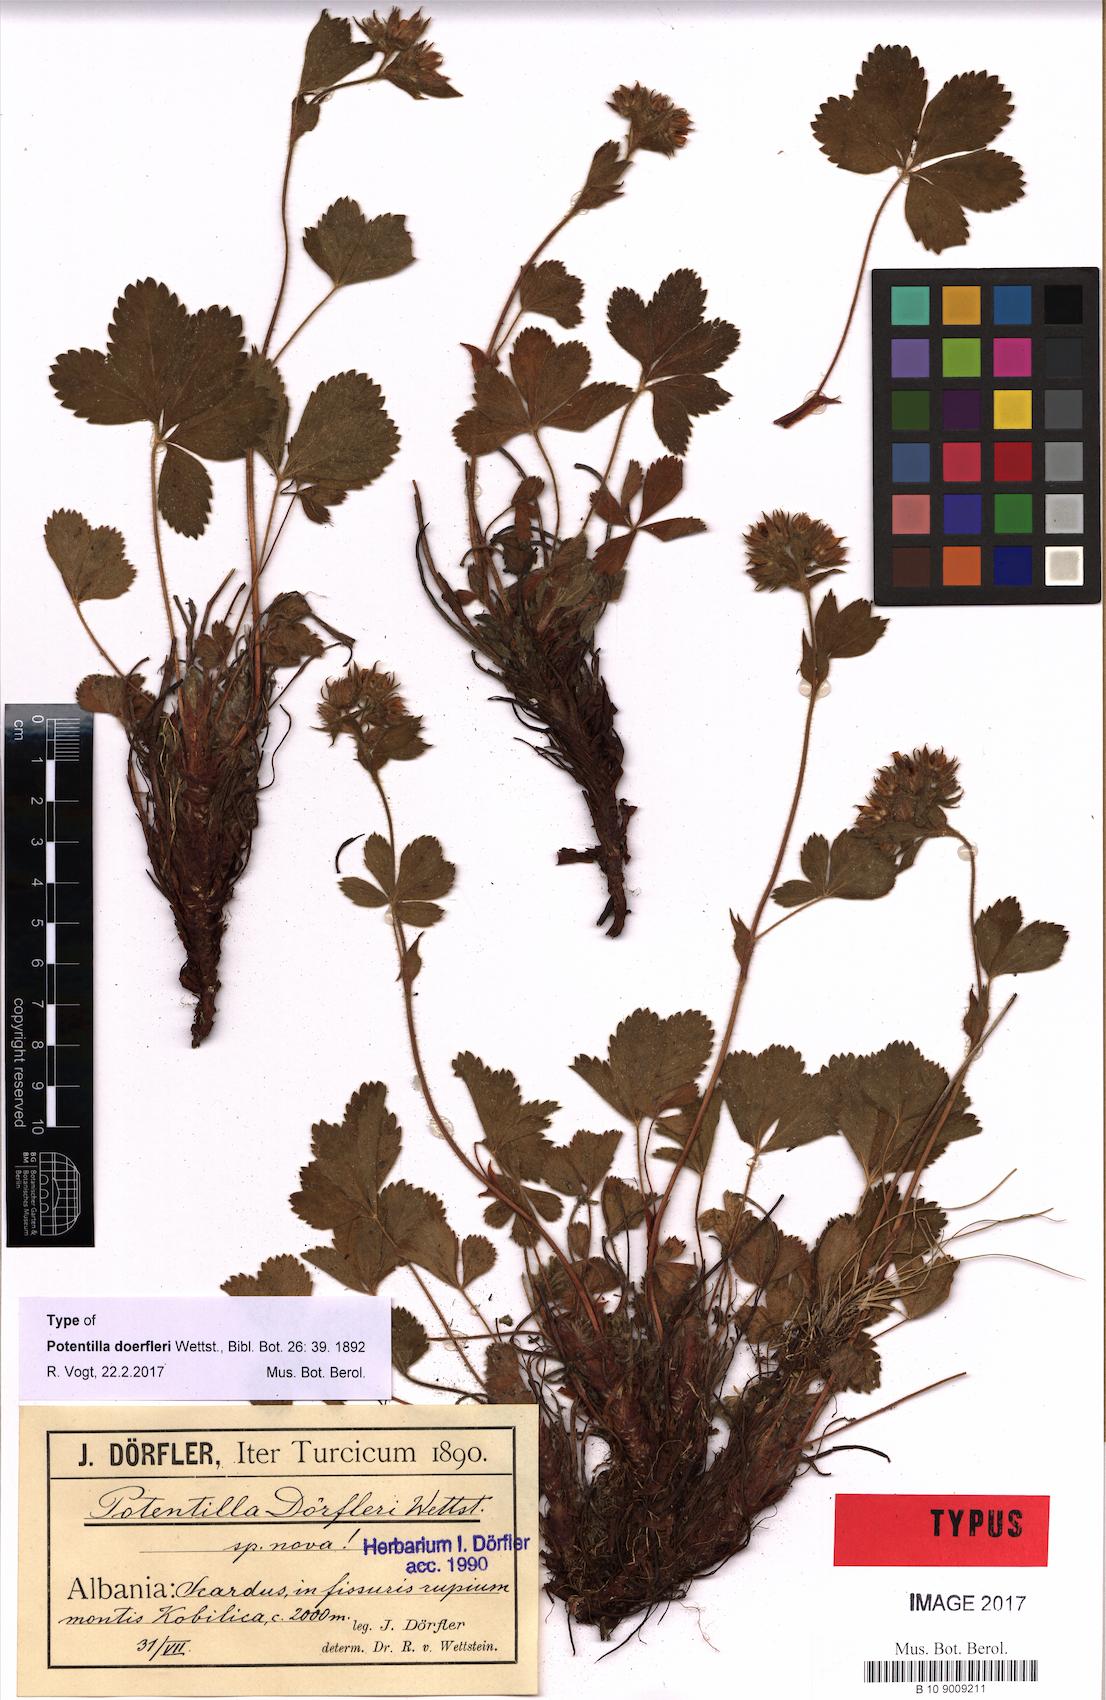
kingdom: Plantae
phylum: Tracheophyta
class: Magnoliopsida
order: Rosales
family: Rosaceae
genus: Potentilla
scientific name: Potentilla doerfleri
